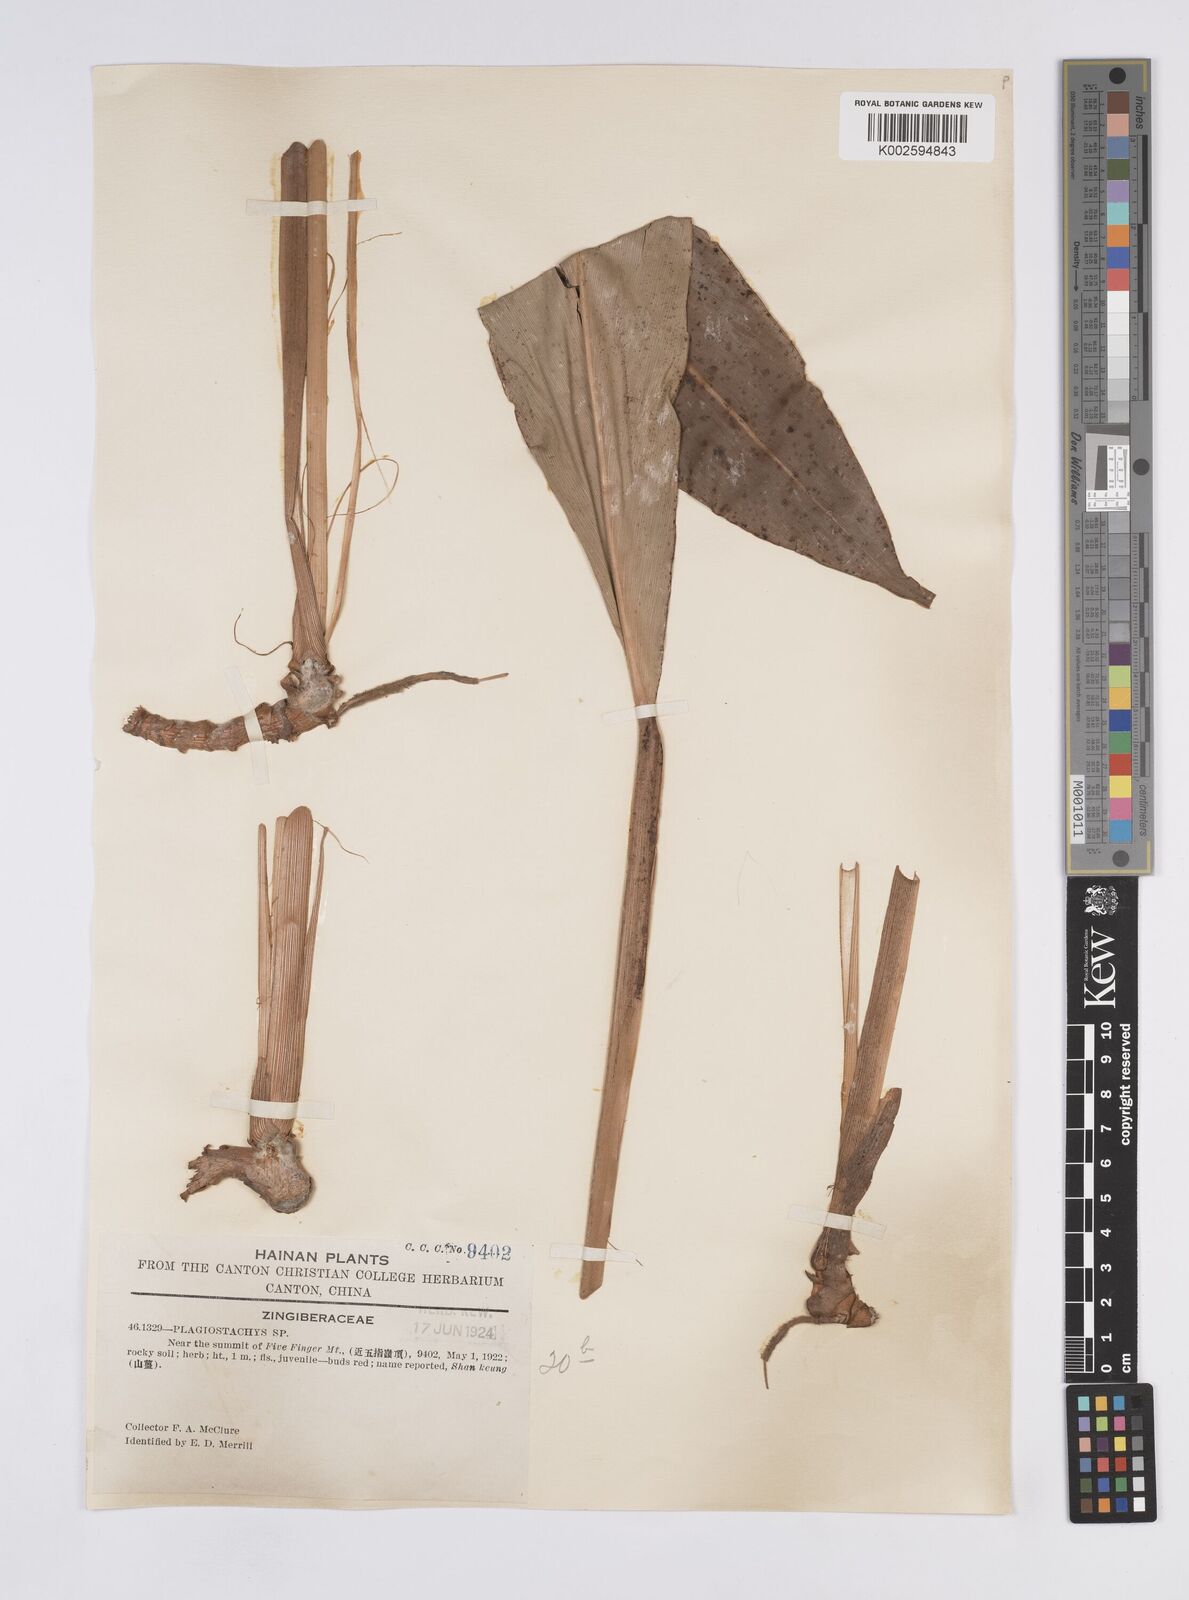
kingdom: Plantae
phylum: Tracheophyta
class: Liliopsida
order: Zingiberales
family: Zingiberaceae
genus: Plagiostachys
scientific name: Plagiostachys
